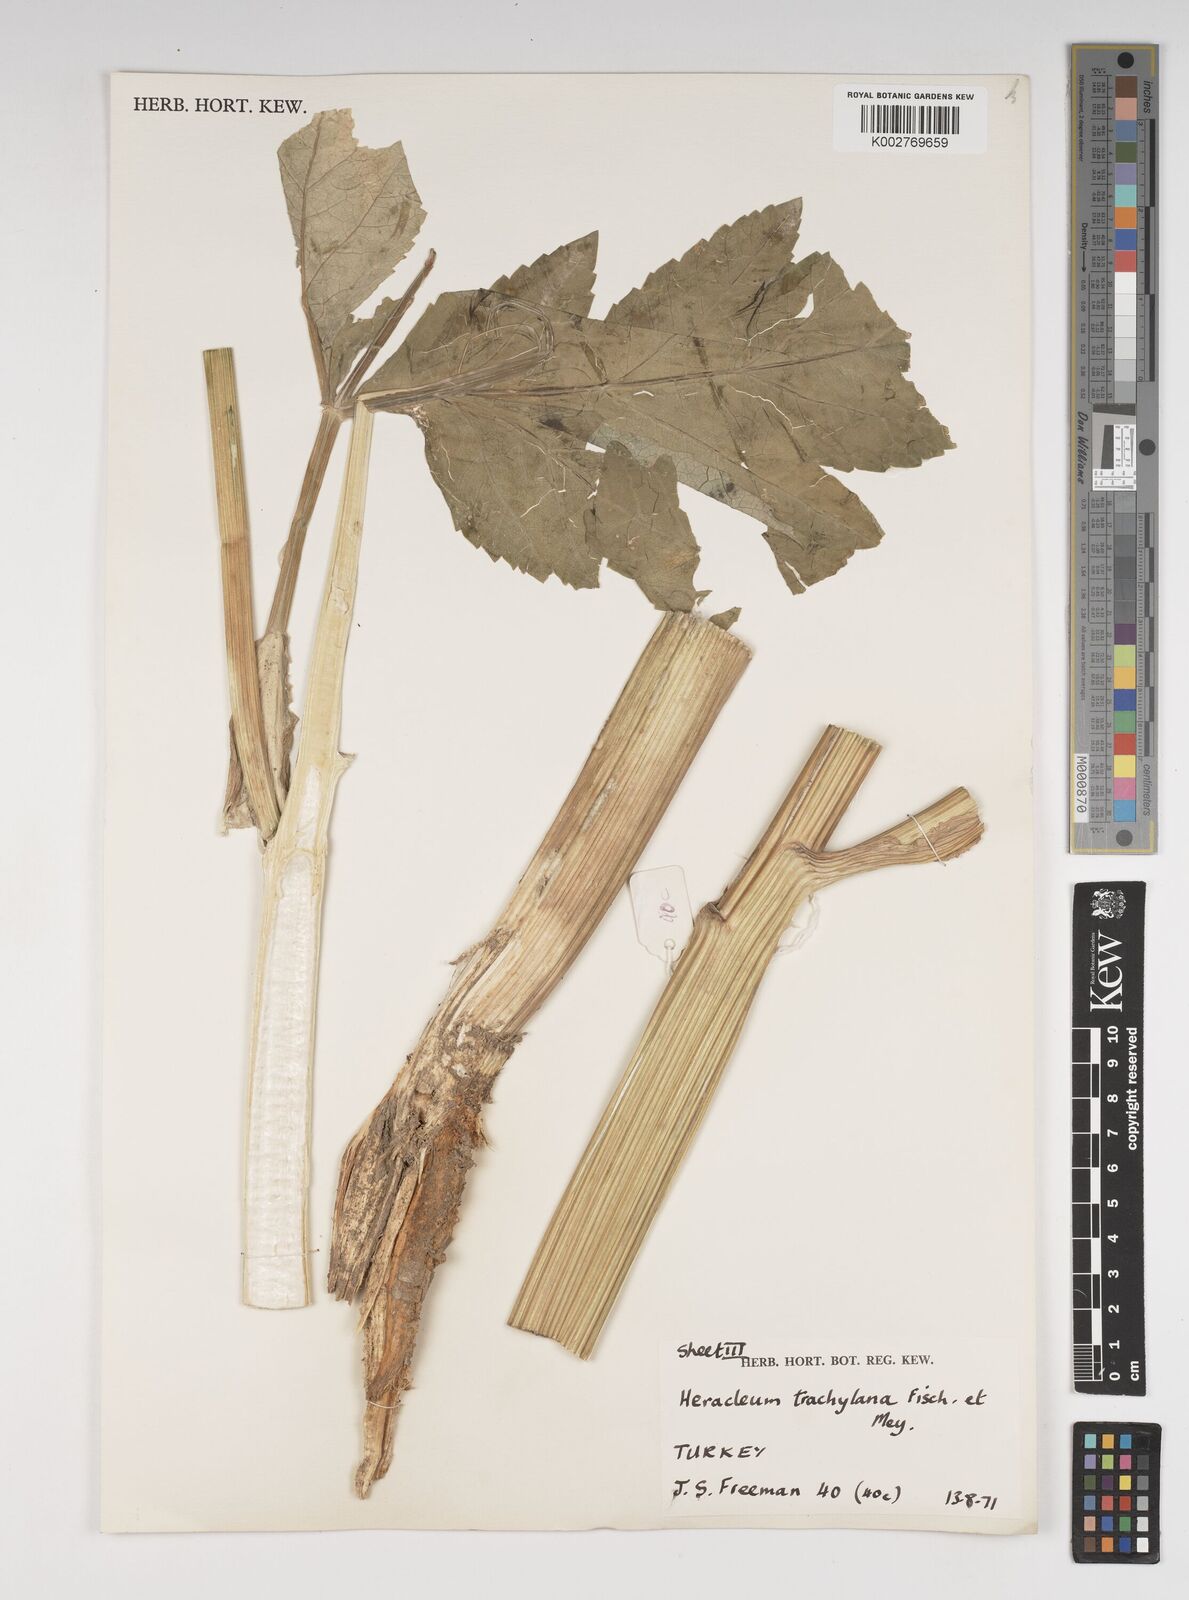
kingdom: Plantae
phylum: Tracheophyta
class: Magnoliopsida
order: Apiales
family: Apiaceae
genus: Heracleum
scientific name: Heracleum trachyloma
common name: Downy cow-parsnip
